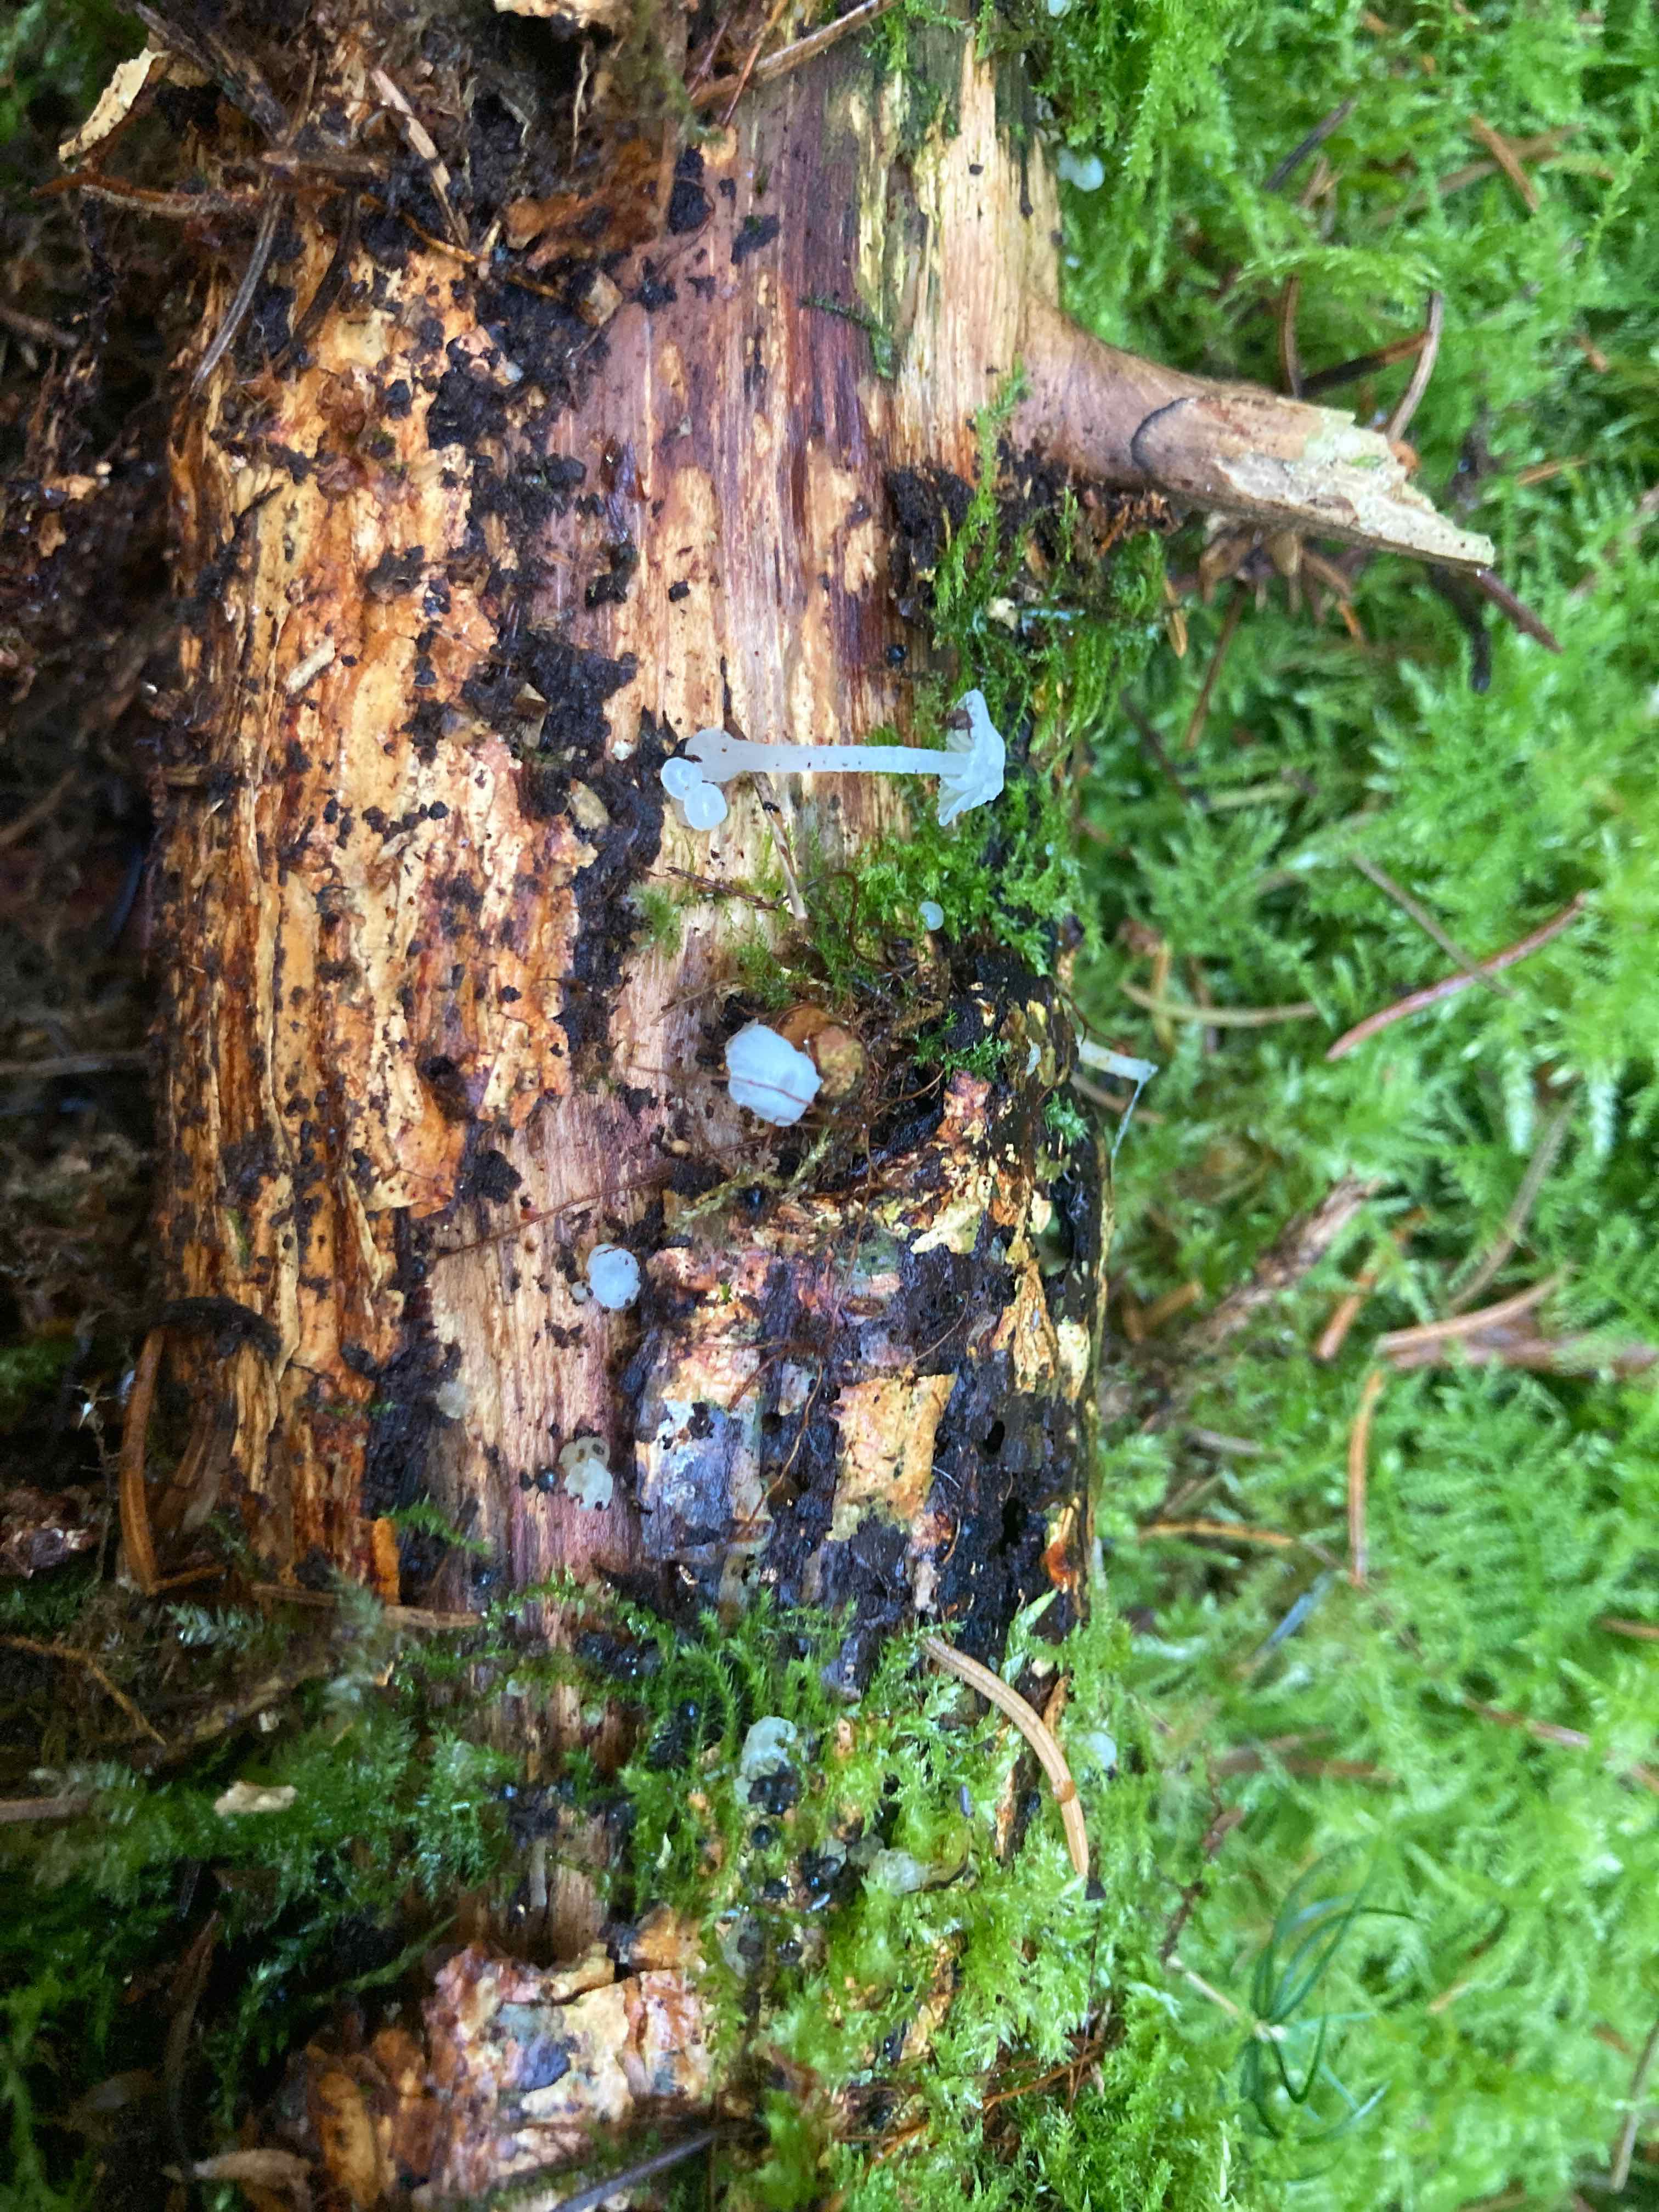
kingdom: Fungi
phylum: Basidiomycota
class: Agaricomycetes
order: Agaricales
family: Tricholomataceae
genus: Delicatula
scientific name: Delicatula integrella
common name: slørhuesvamp
